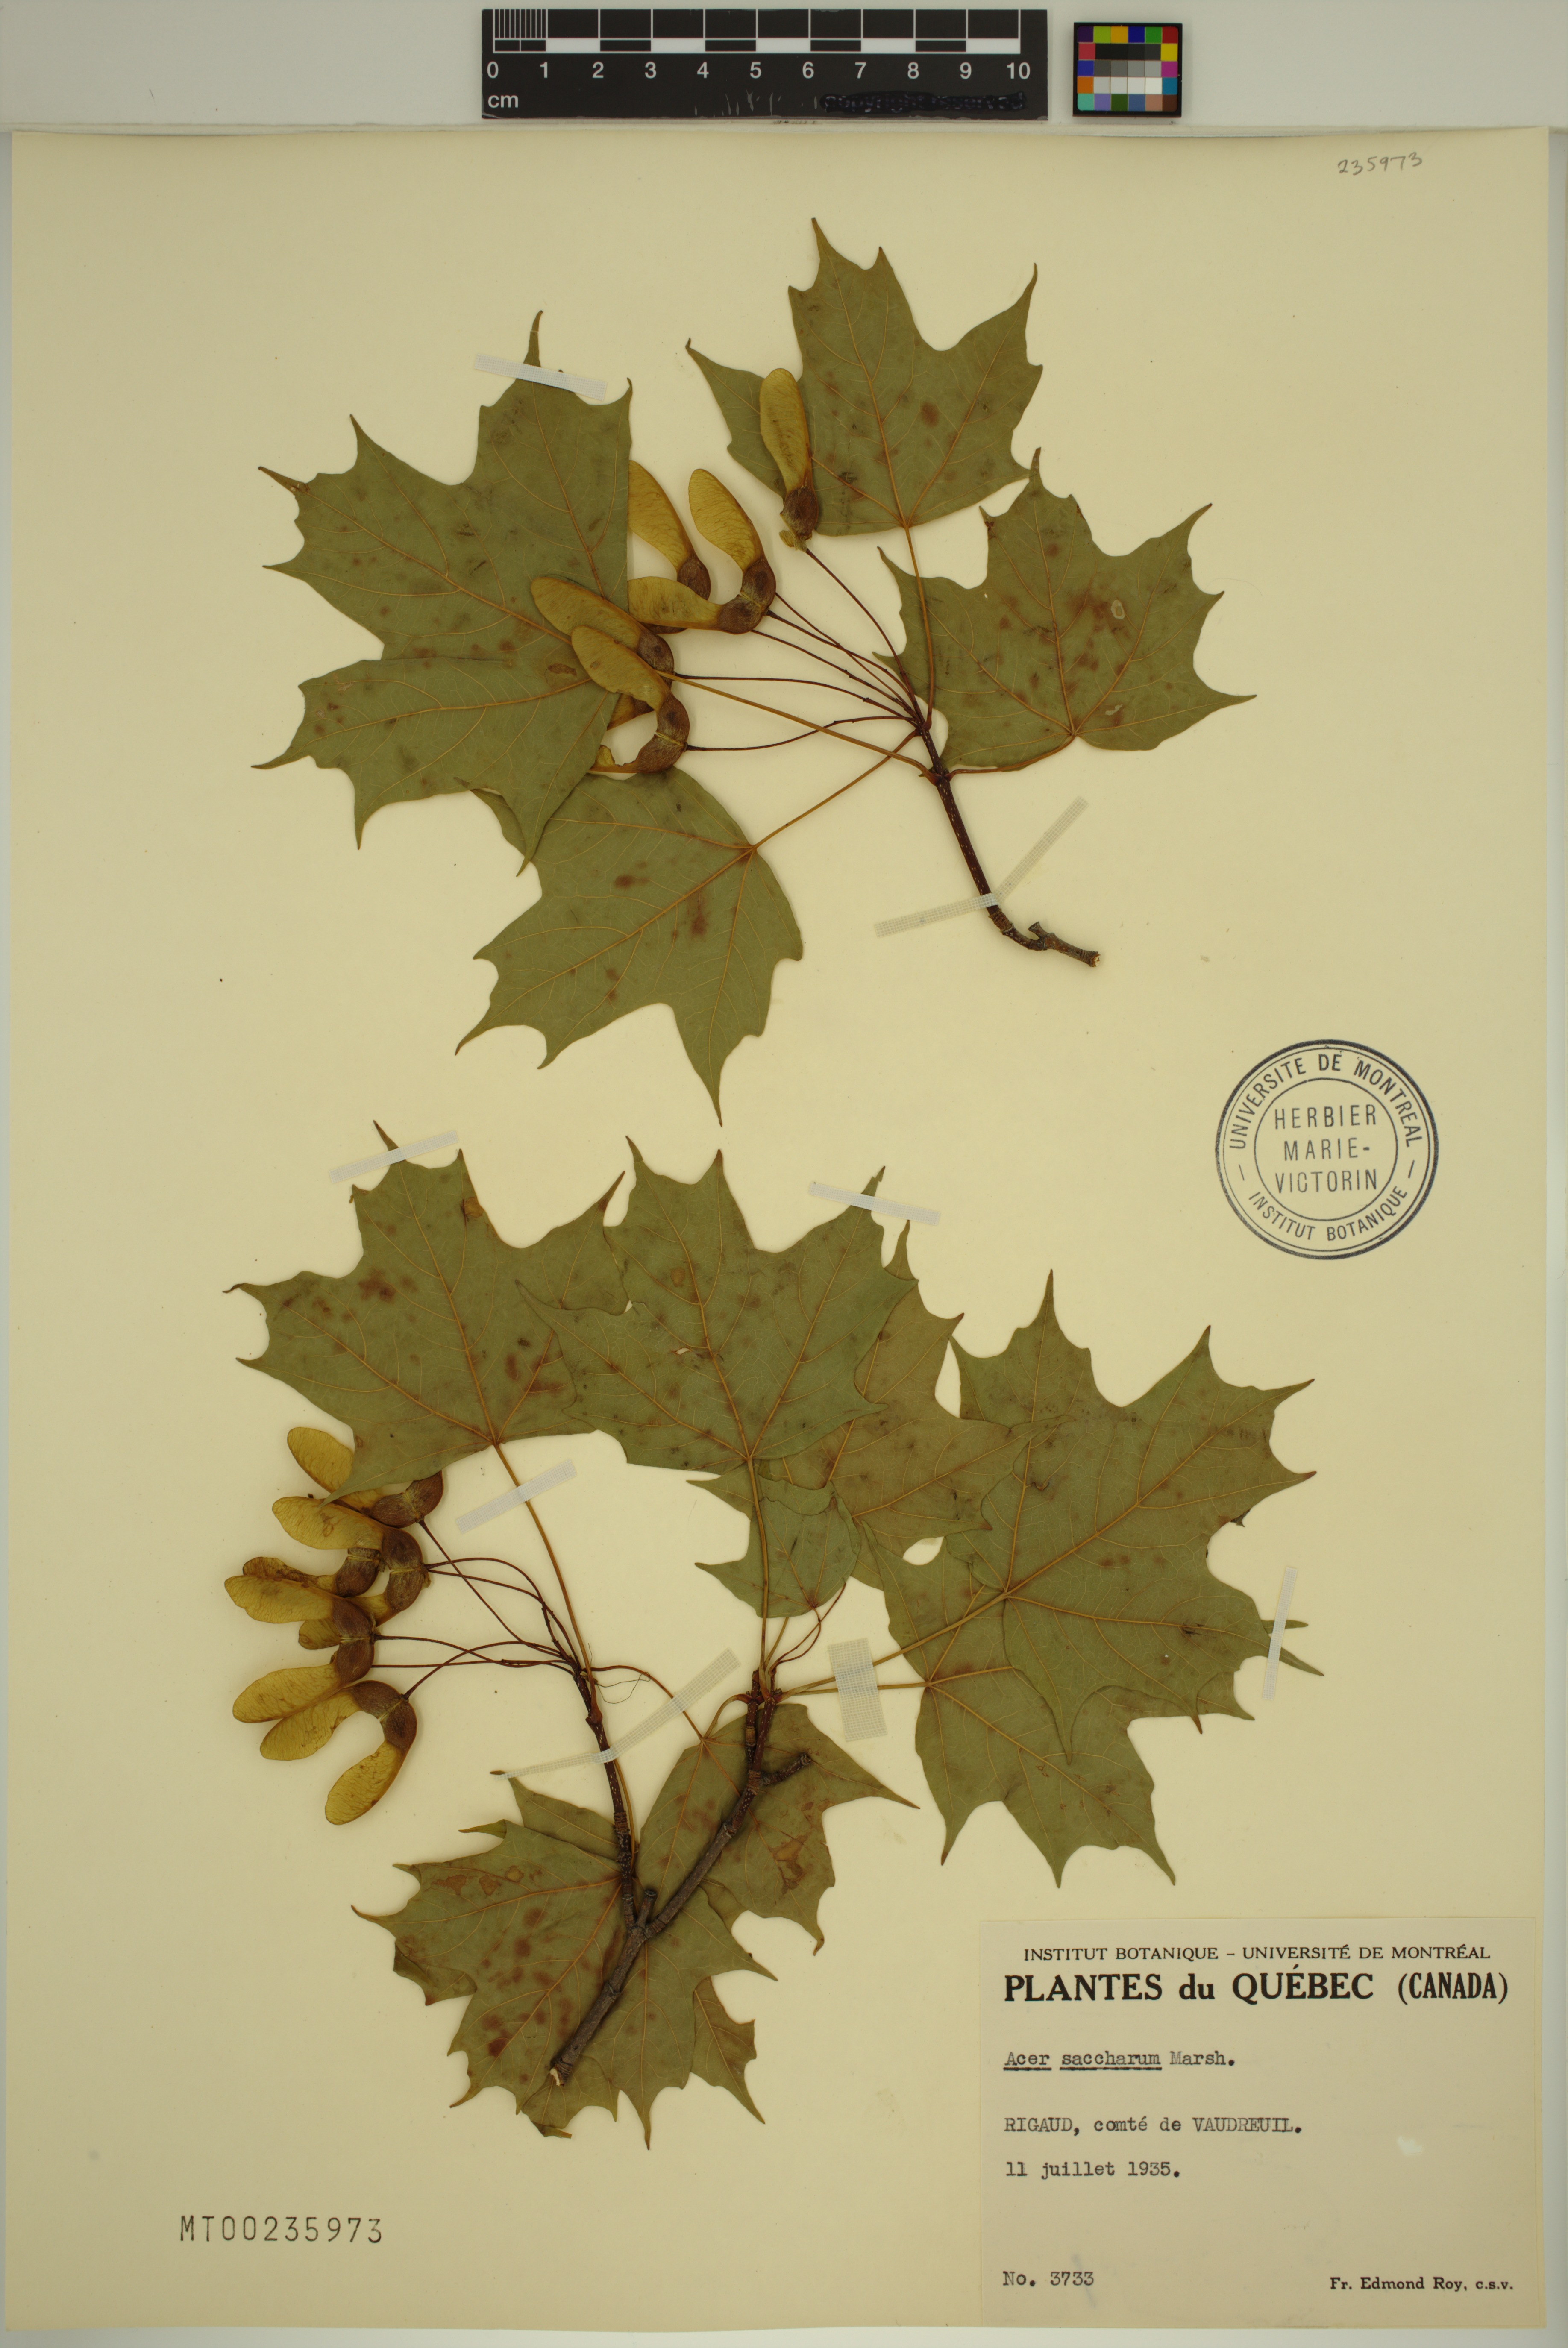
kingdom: Plantae
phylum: Tracheophyta
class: Magnoliopsida
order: Sapindales
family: Sapindaceae
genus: Acer
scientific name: Acer saccharum
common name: Sugar maple
